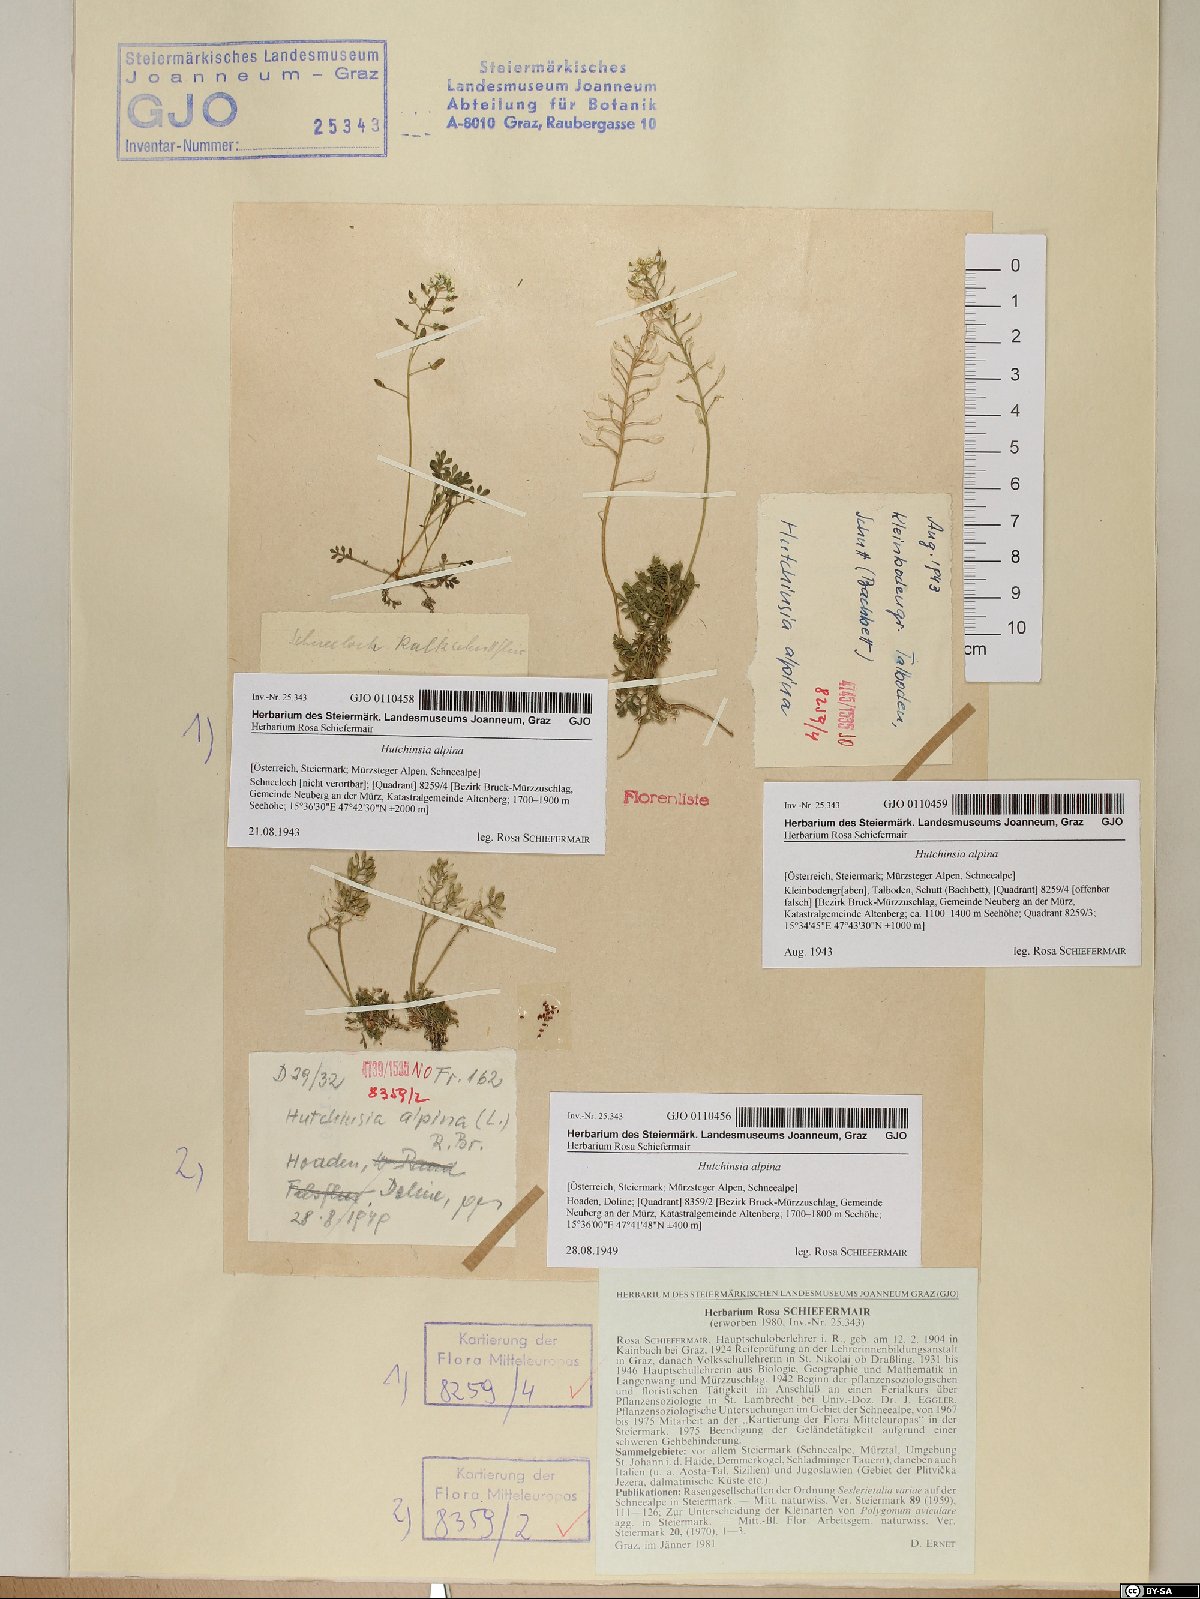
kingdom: Plantae
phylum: Tracheophyta
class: Magnoliopsida
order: Brassicales
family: Brassicaceae
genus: Hornungia
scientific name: Hornungia alpina
